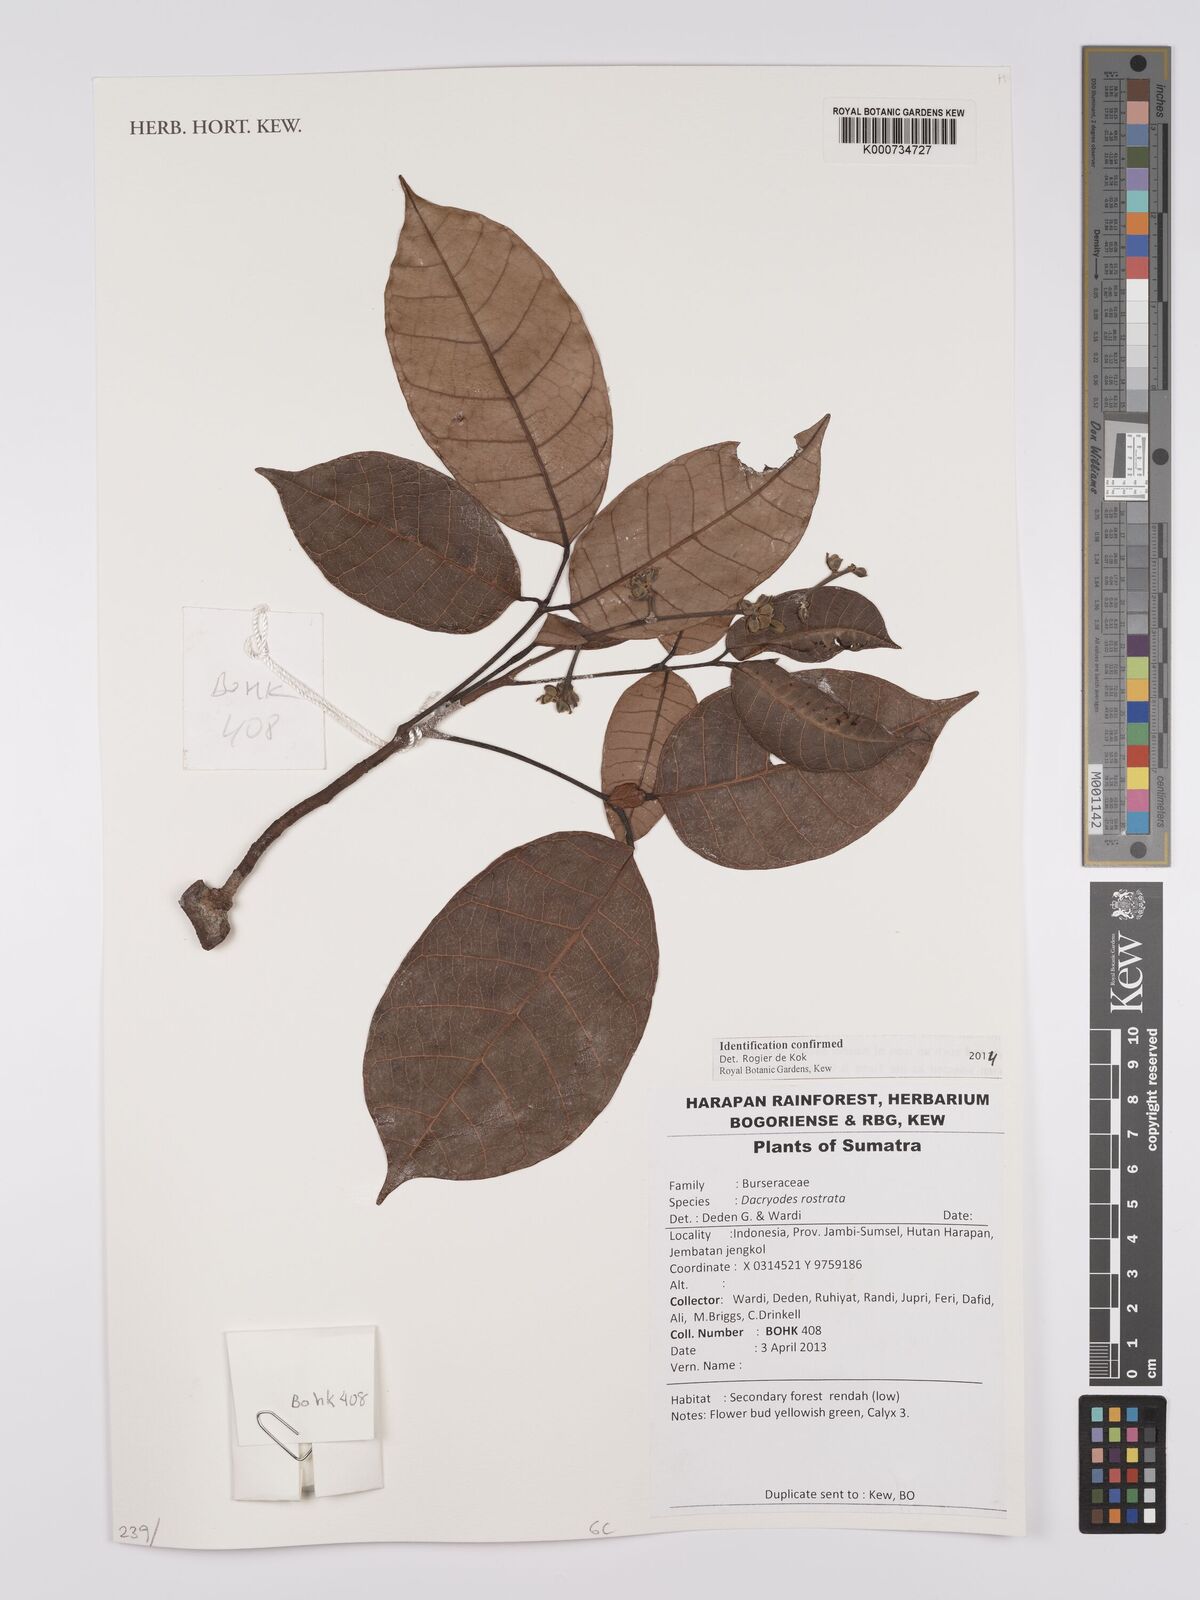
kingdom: Plantae
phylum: Tracheophyta
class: Magnoliopsida
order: Sapindales
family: Burseraceae
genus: Dacryodes
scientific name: Dacryodes rostrata
